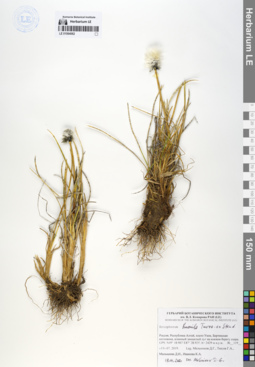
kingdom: Plantae
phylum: Tracheophyta
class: Liliopsida
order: Poales
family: Cyperaceae
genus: Eriophorum
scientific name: Eriophorum humile
